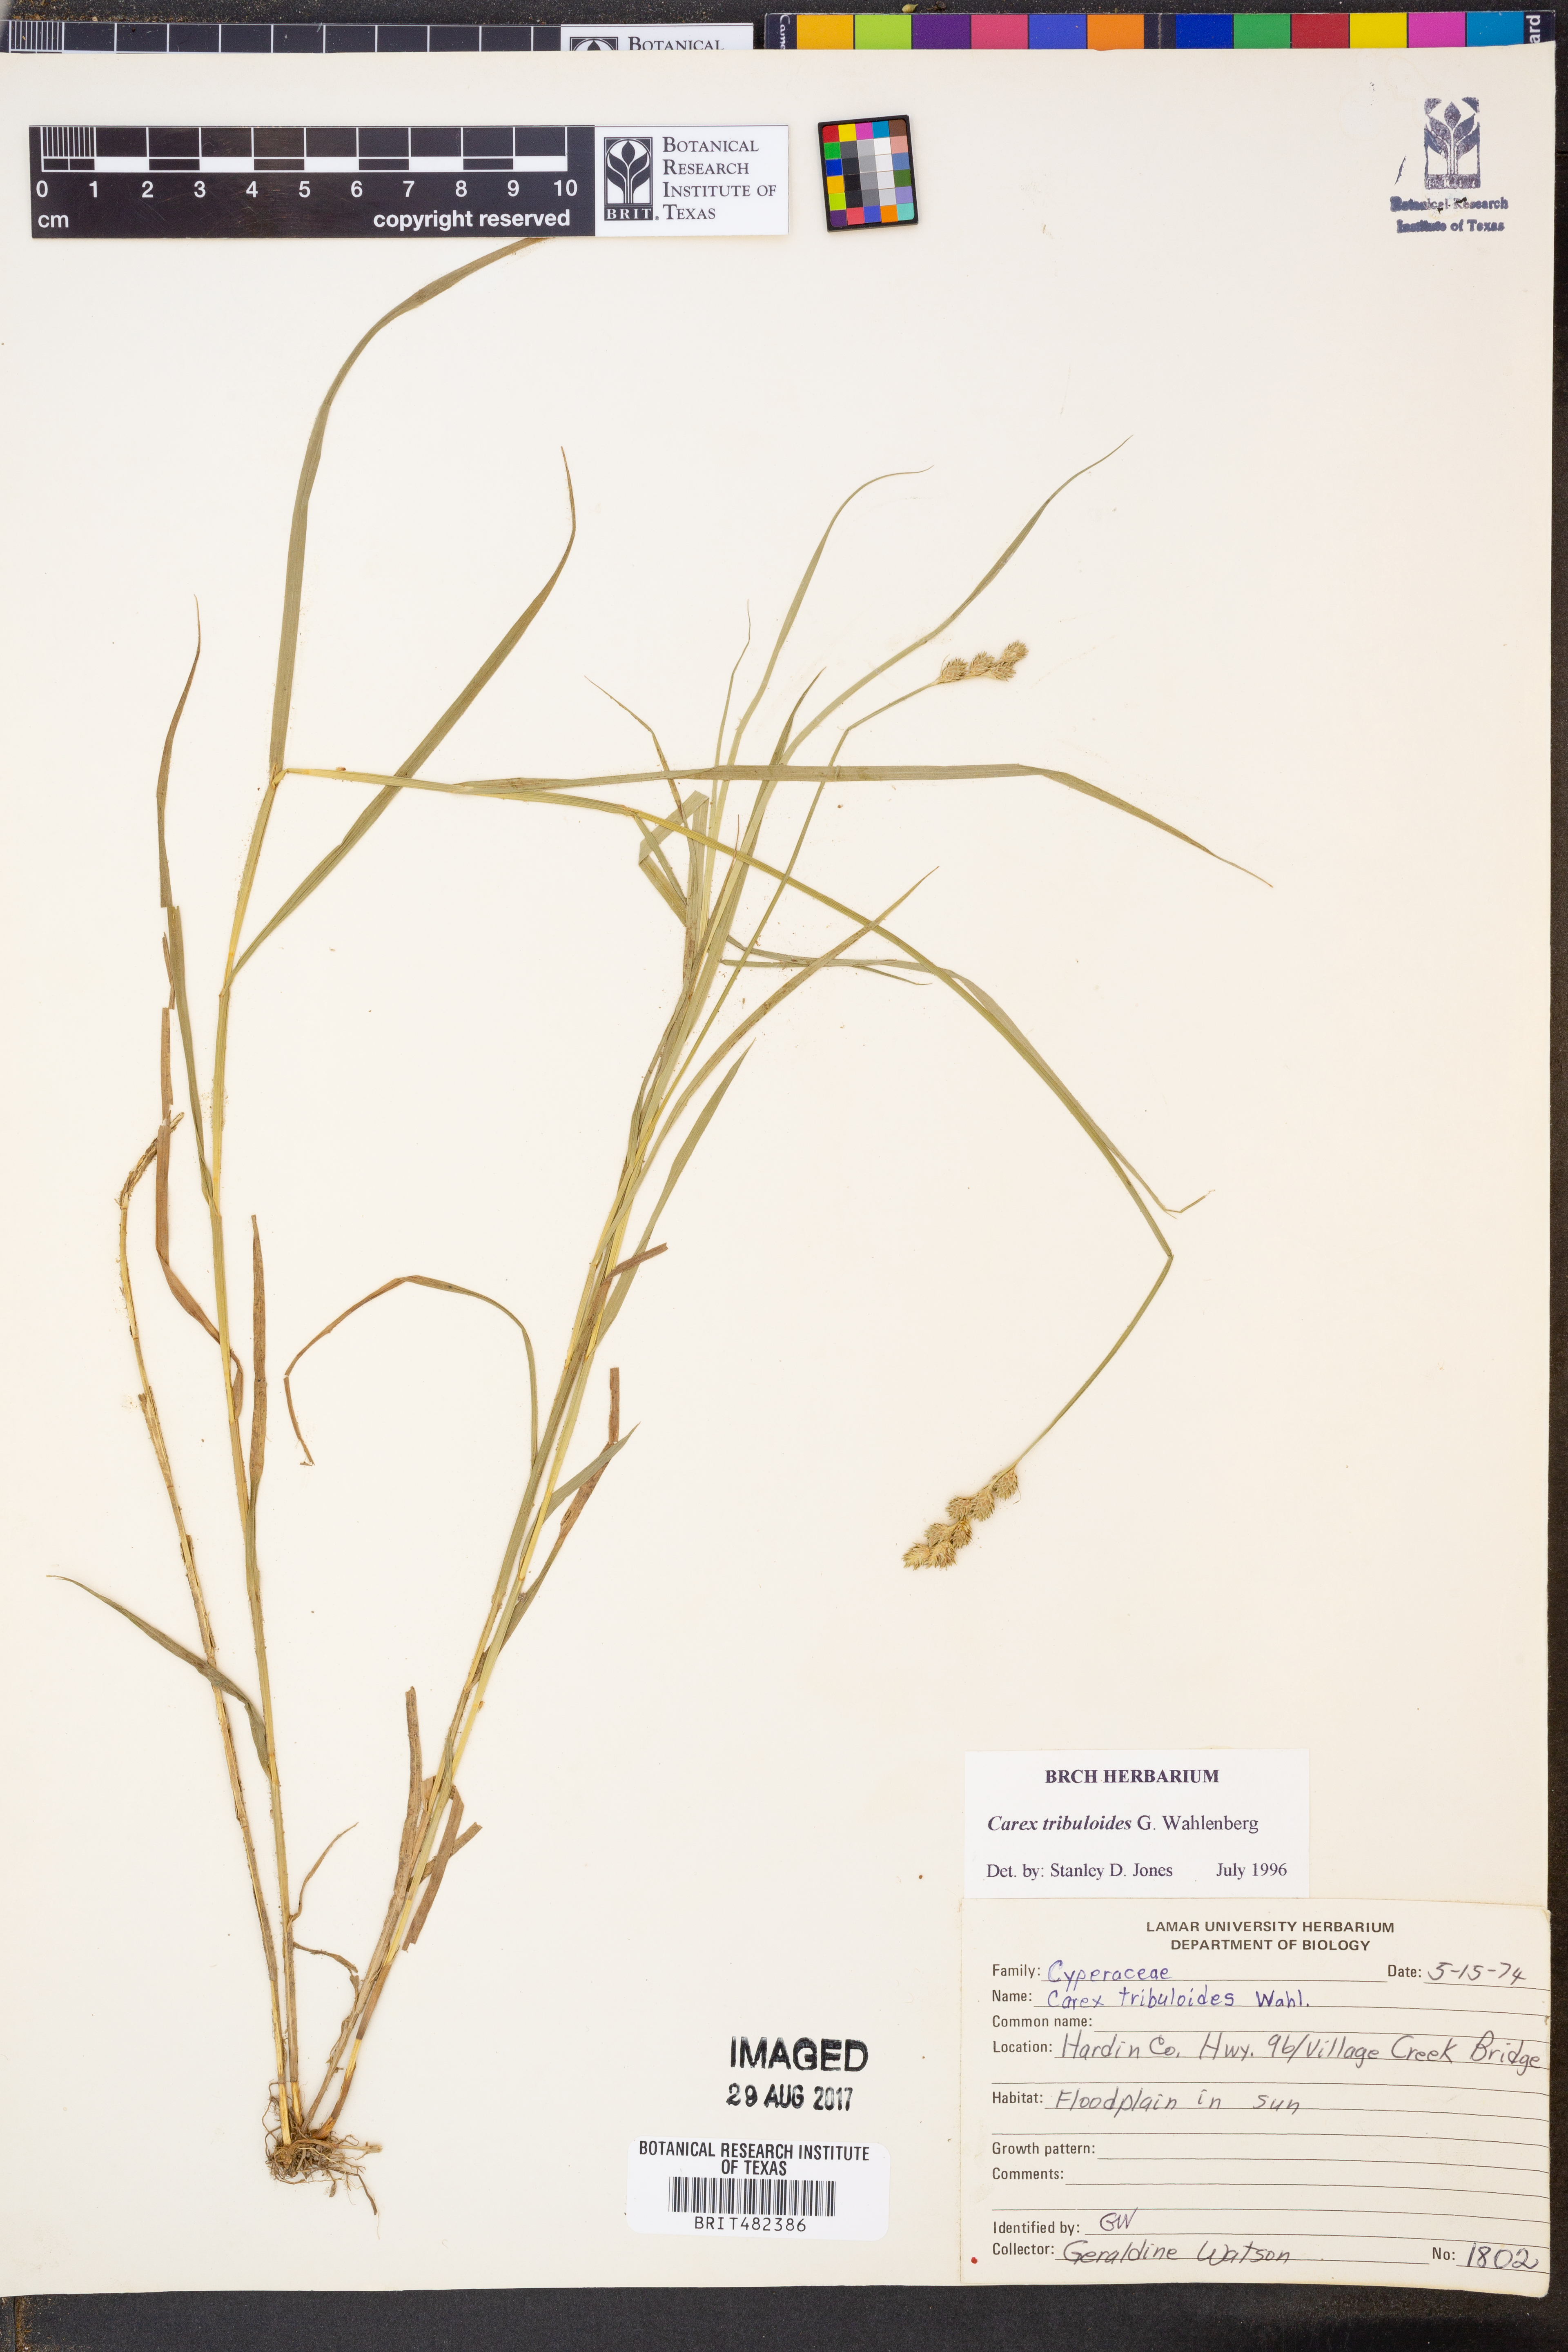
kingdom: Plantae
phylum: Tracheophyta
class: Liliopsida
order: Poales
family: Cyperaceae
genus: Carex
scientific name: Carex tribuloides
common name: Blunt broom sedge
